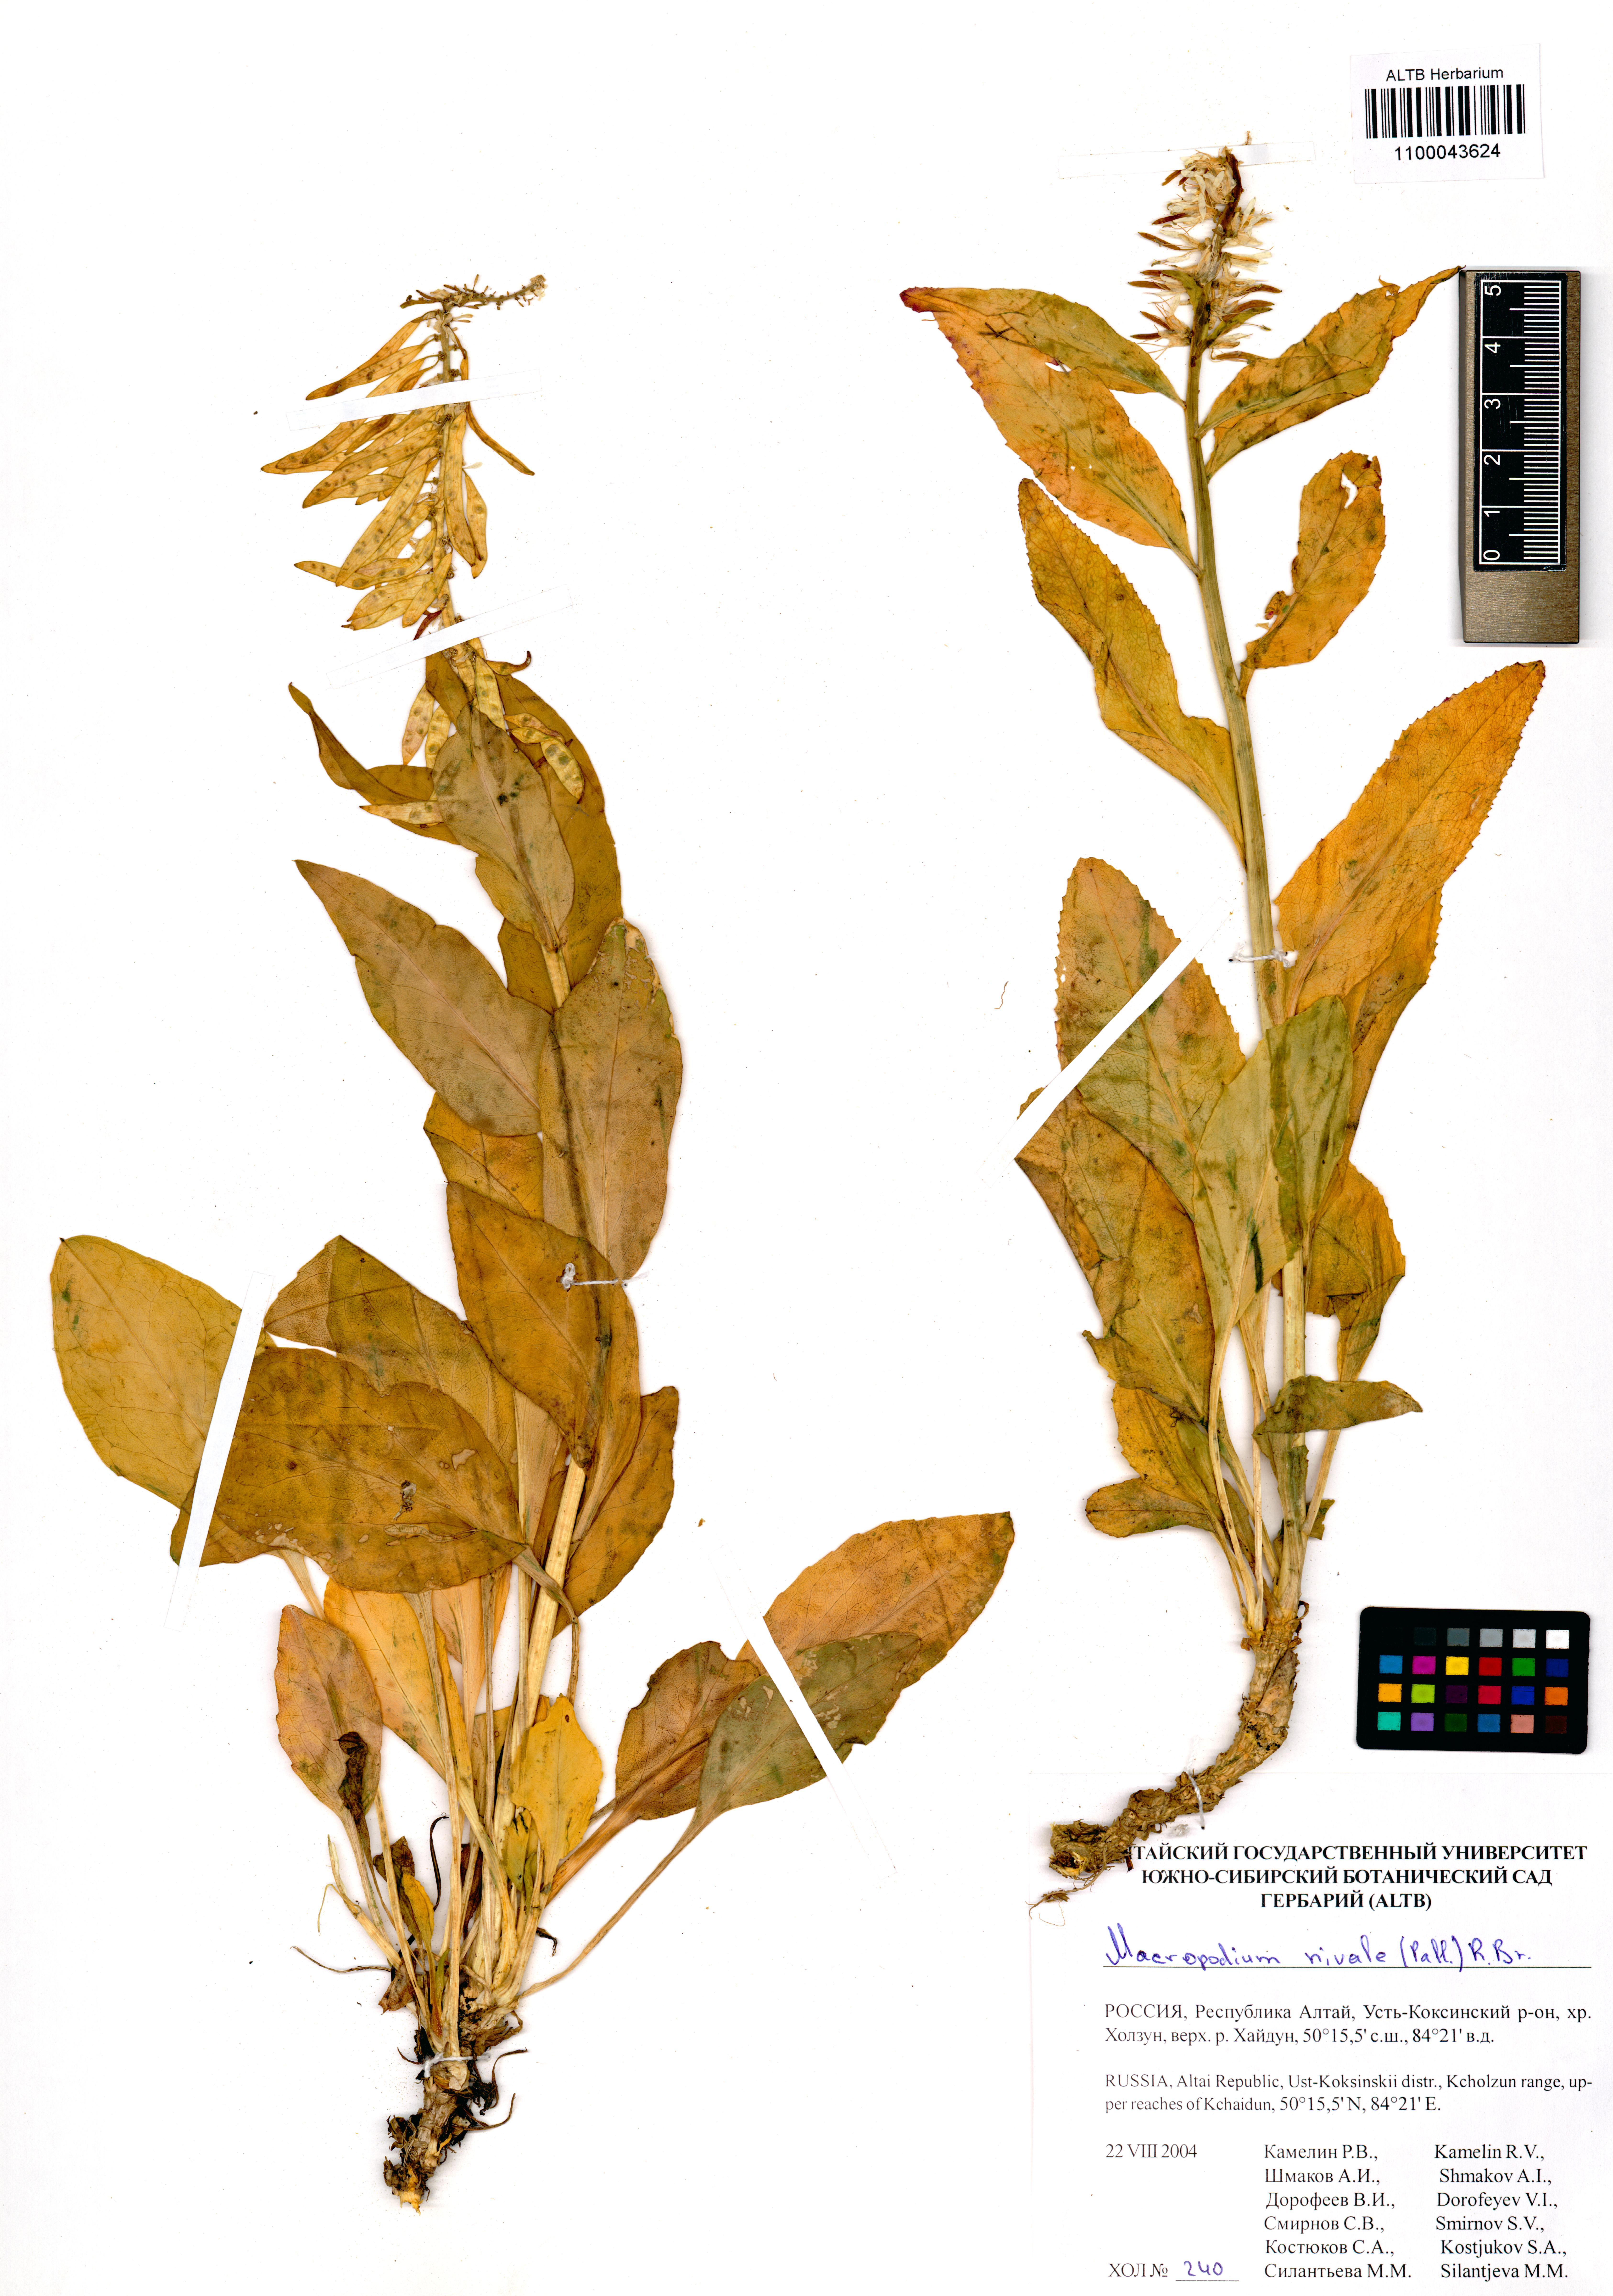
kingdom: Plantae
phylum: Tracheophyta
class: Magnoliopsida
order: Brassicales
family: Brassicaceae
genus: Macropodium
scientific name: Macropodium nivale
